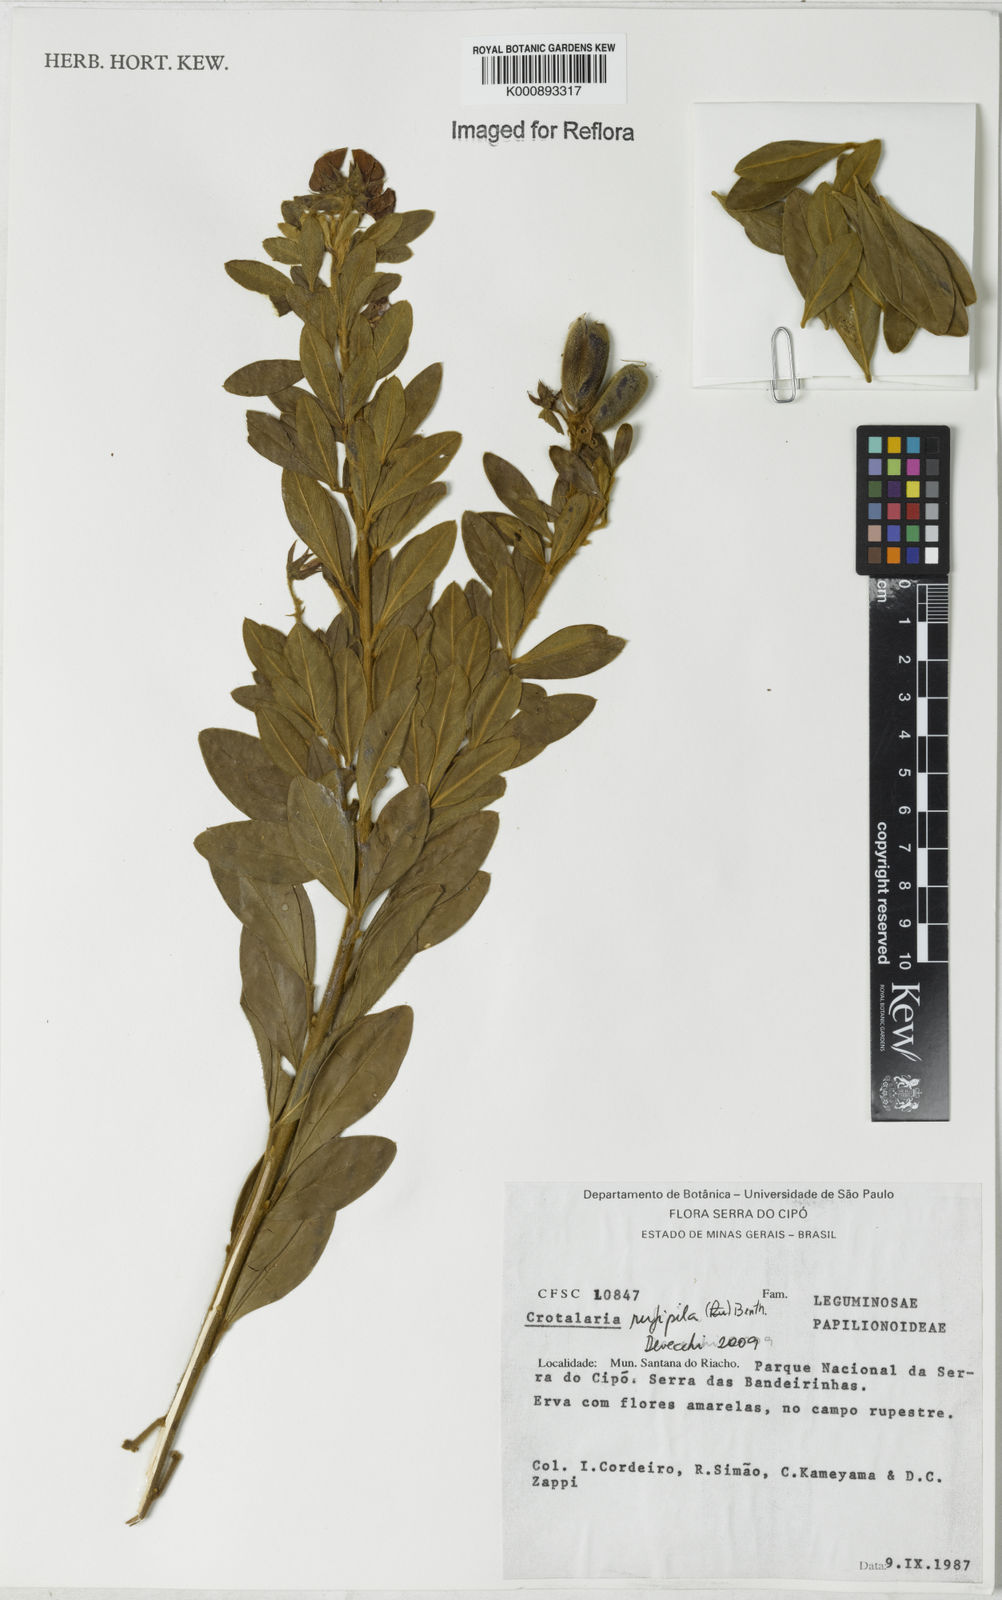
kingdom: Plantae
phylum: Tracheophyta
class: Magnoliopsida
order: Fabales
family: Fabaceae
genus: Crotalaria
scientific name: Crotalaria rufipila
